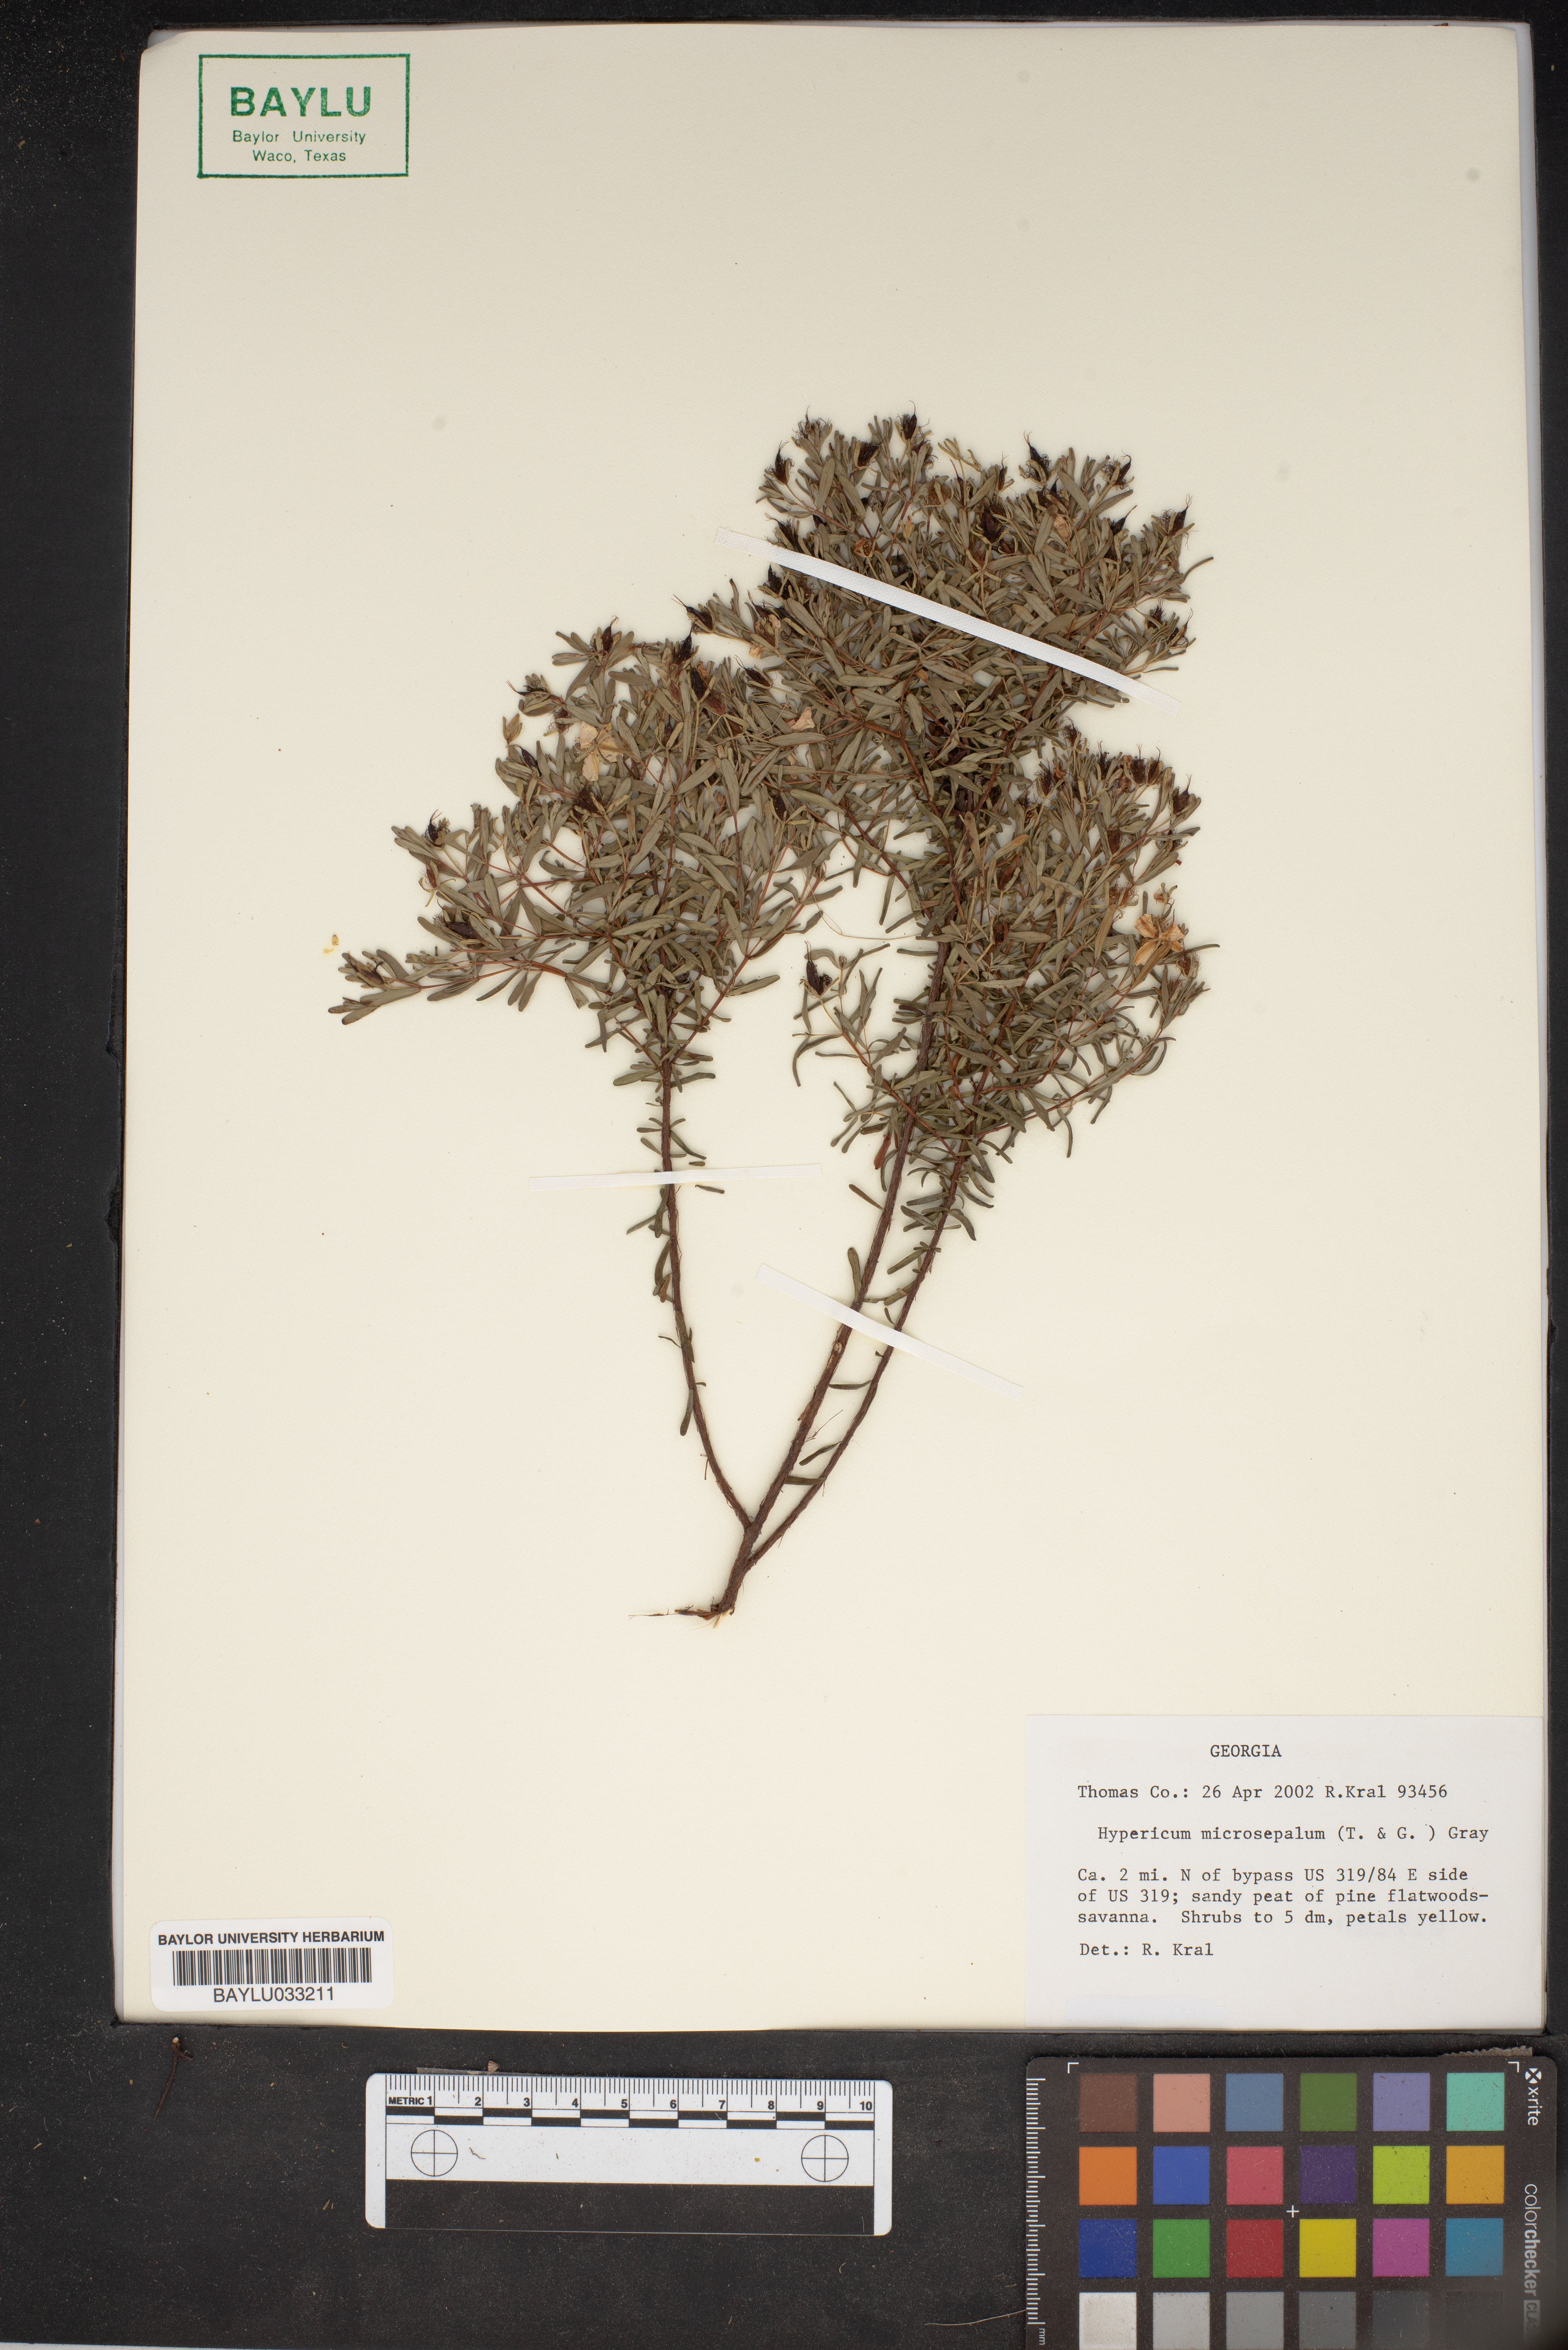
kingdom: Plantae
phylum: Tracheophyta
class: Magnoliopsida
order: Malpighiales
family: Hypericaceae
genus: Hypericum
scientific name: Hypericum microsepalum
